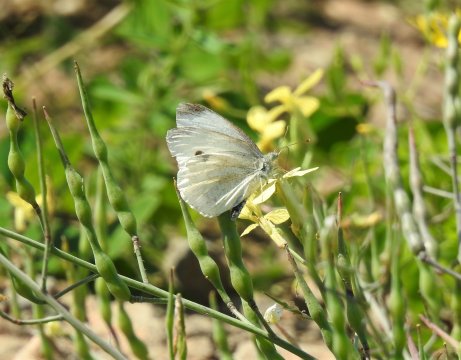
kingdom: Animalia
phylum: Arthropoda
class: Insecta
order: Lepidoptera
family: Pieridae
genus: Pieris
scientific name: Pieris rapae
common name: Cabbage White
